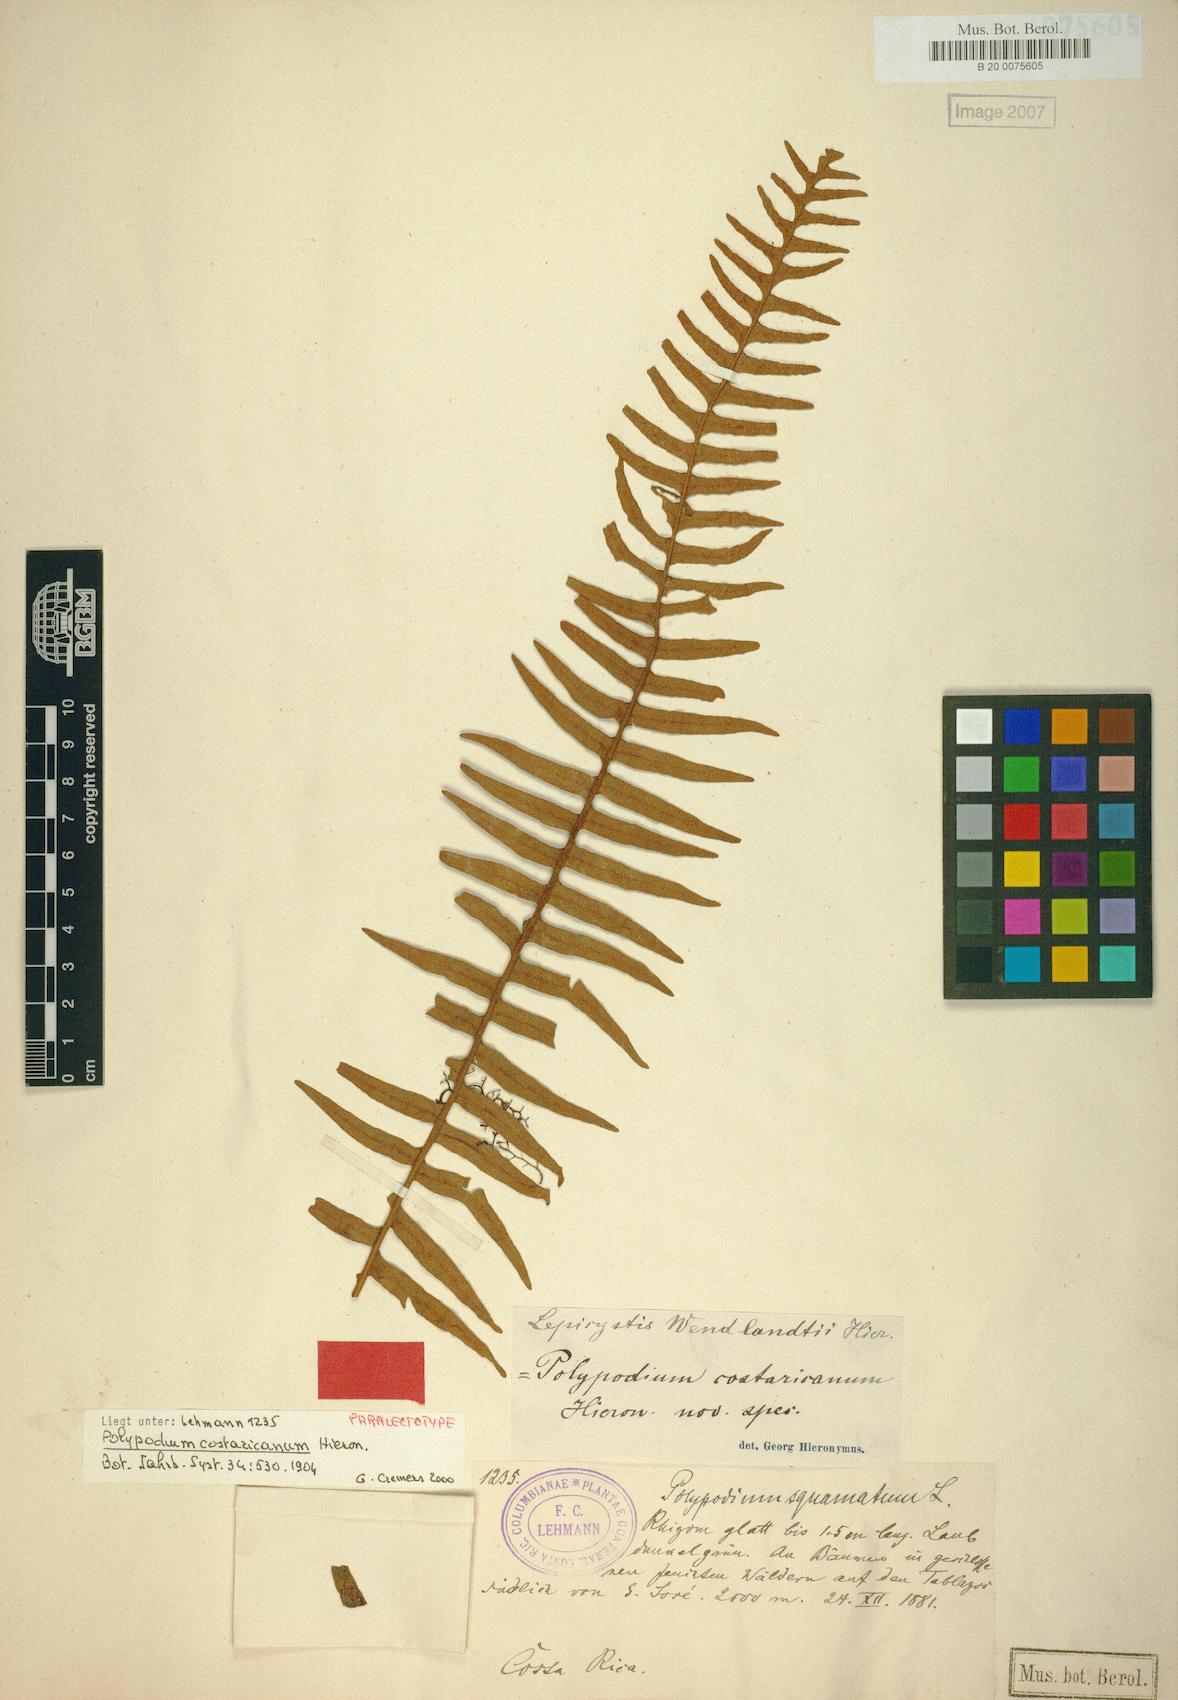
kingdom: Plantae
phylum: Tracheophyta
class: Polypodiopsida
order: Polypodiales
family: Polypodiaceae
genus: Pleopeltis
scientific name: Pleopeltis myriolepis
